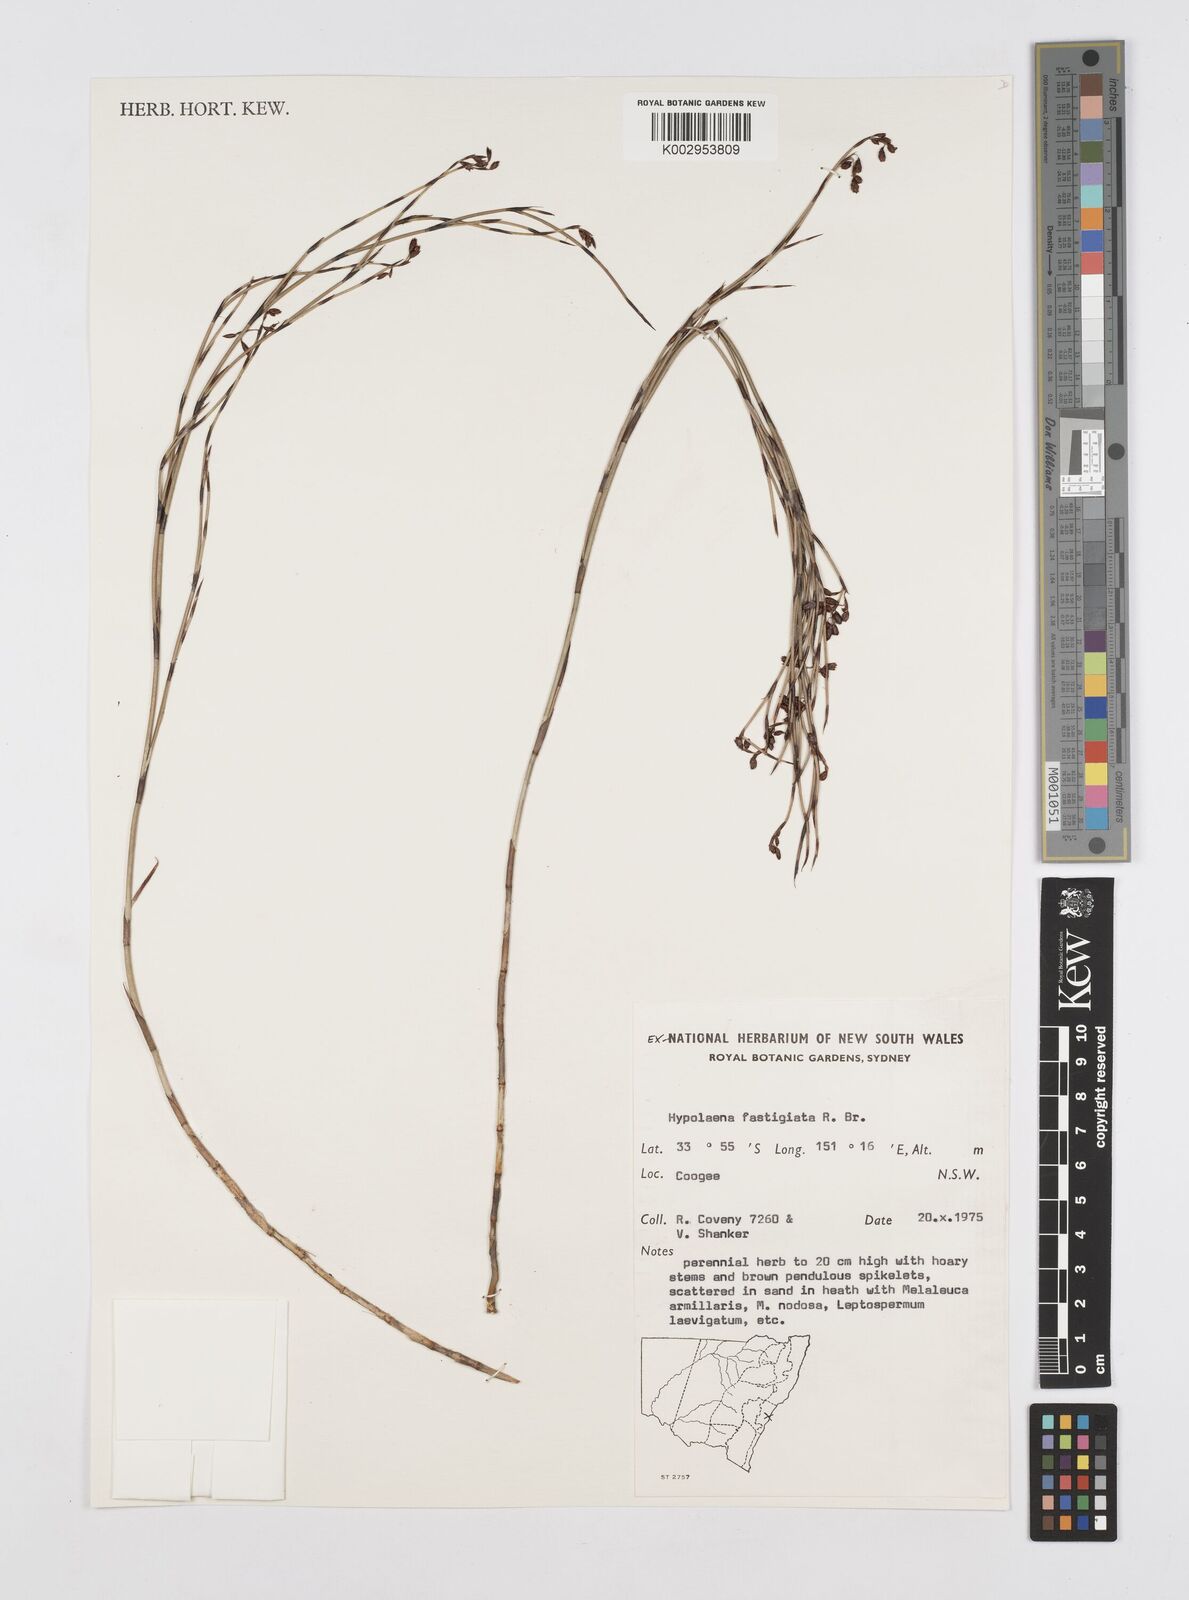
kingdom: Plantae
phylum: Tracheophyta
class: Liliopsida
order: Poales
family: Restionaceae
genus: Hypolaena
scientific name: Hypolaena fastigiata
